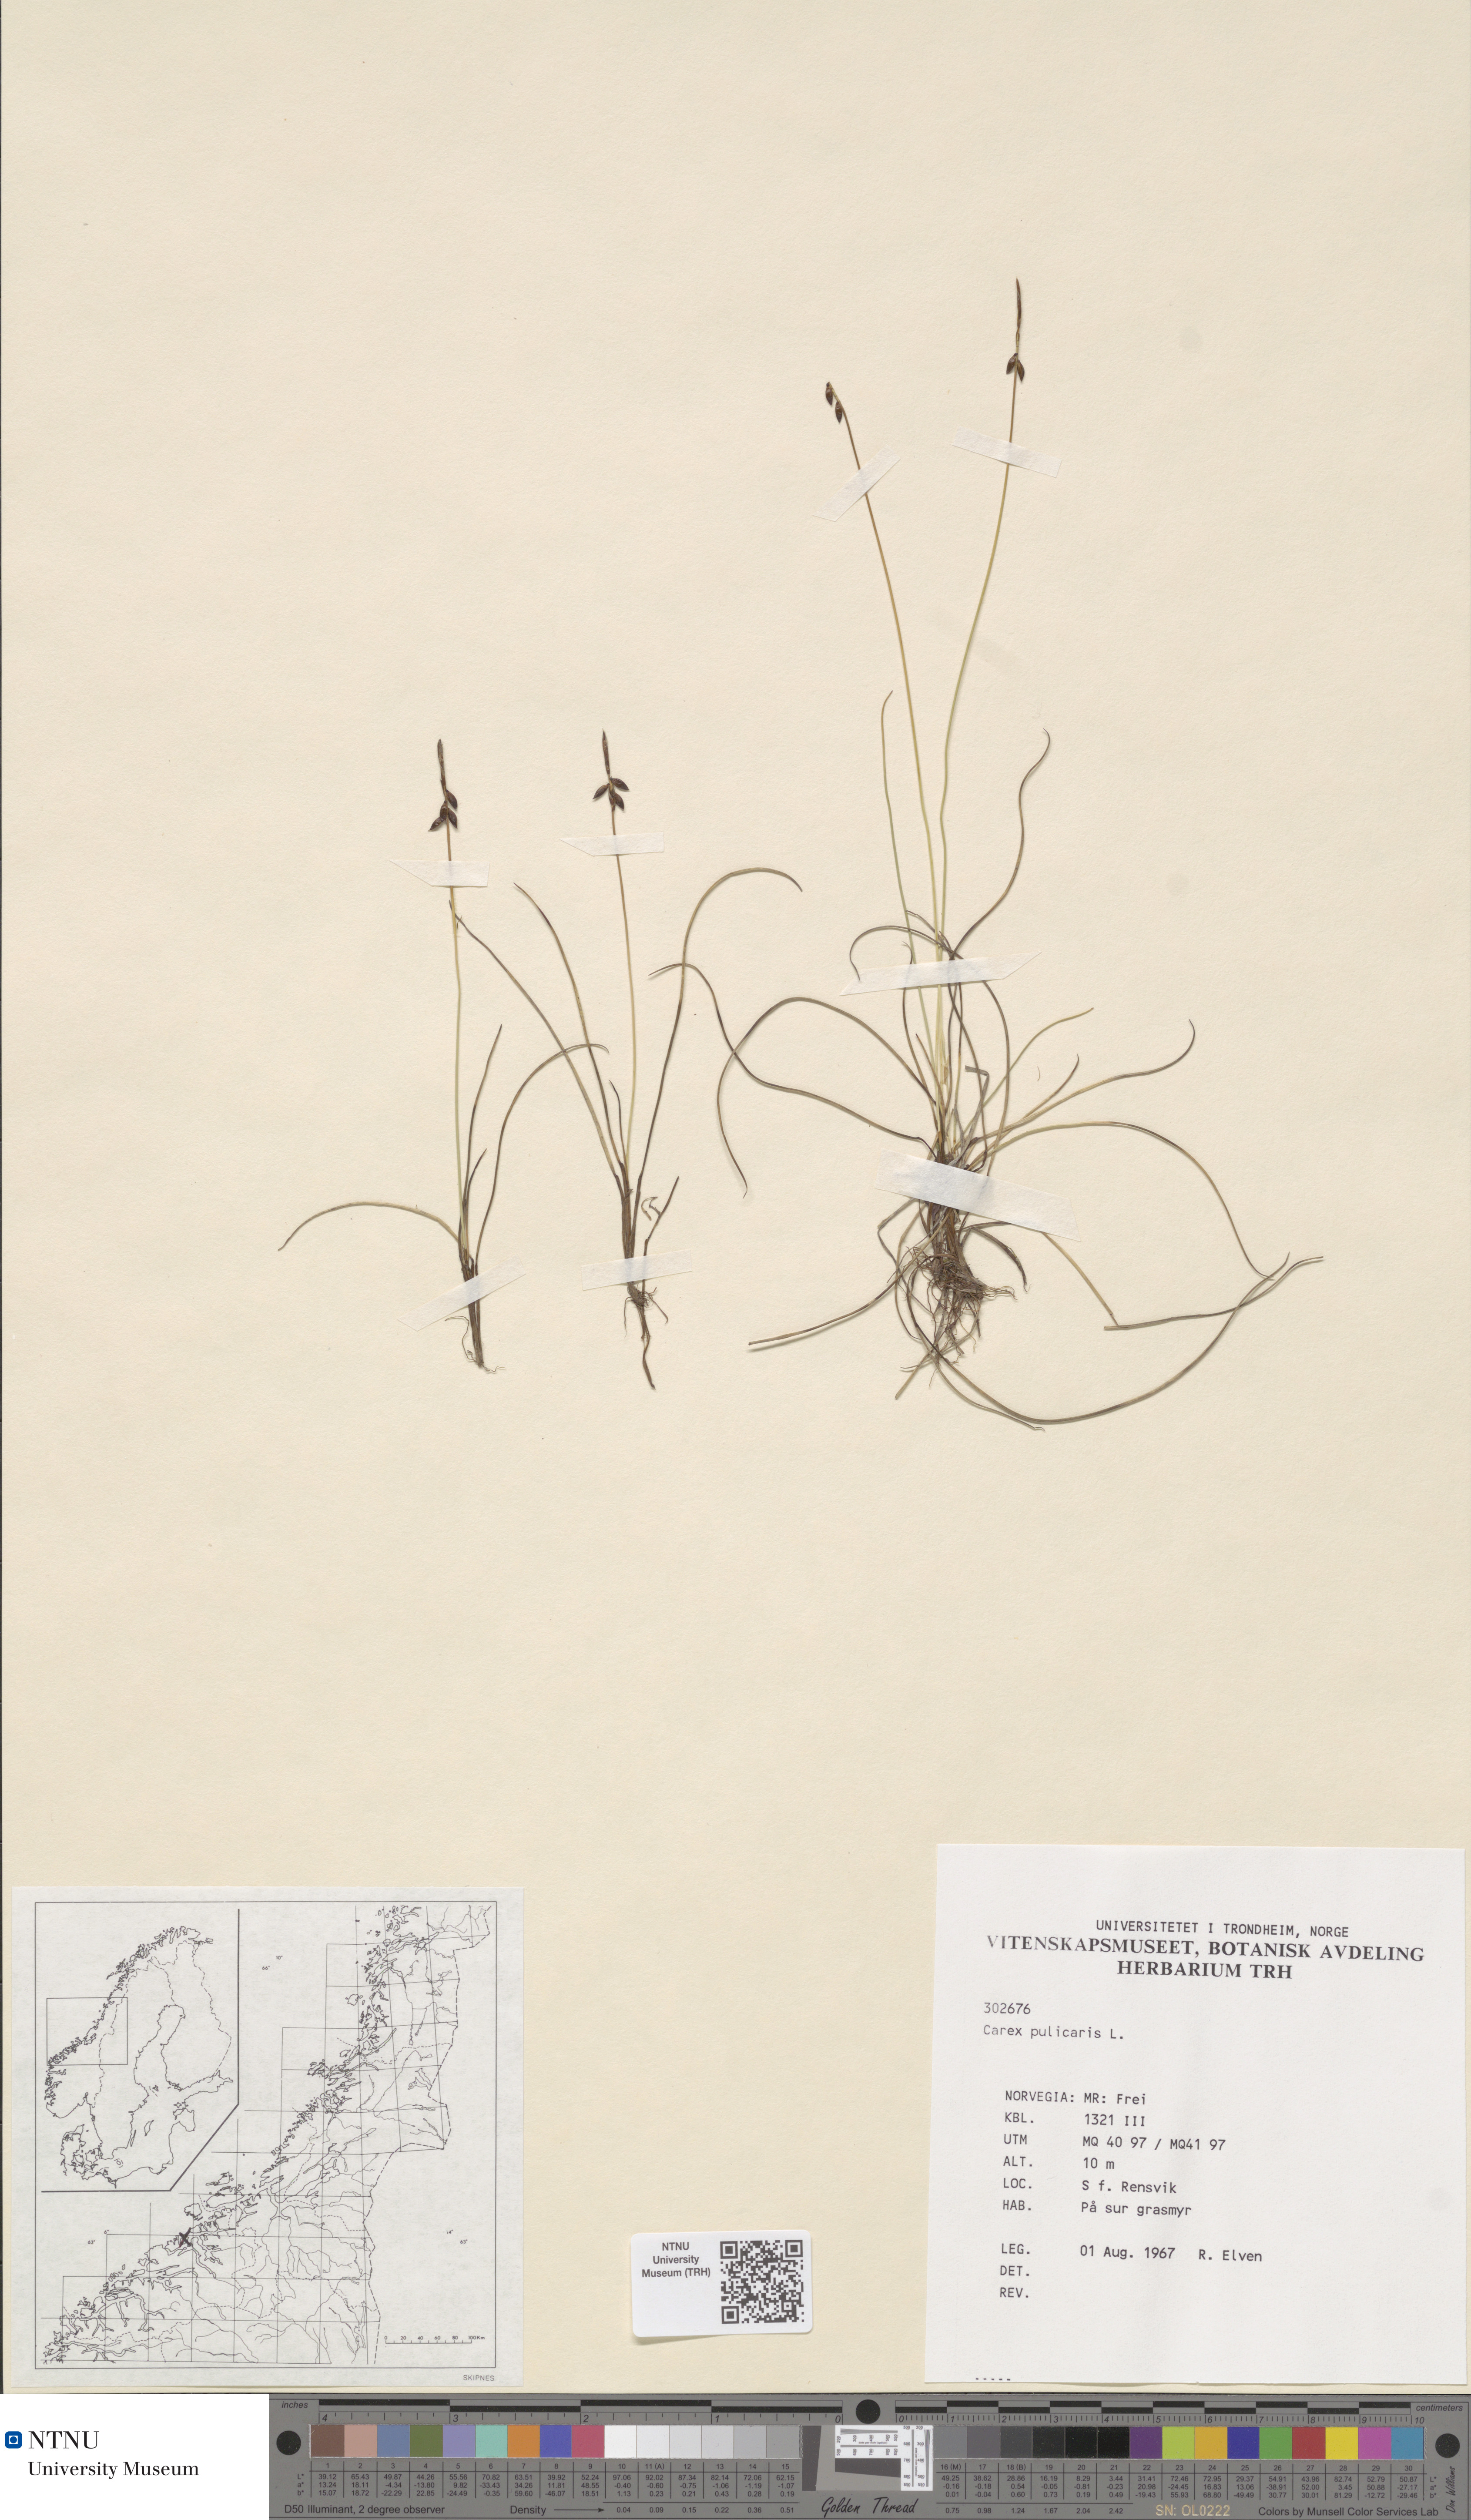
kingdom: Plantae
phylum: Tracheophyta
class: Liliopsida
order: Poales
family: Cyperaceae
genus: Carex
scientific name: Carex pulicaris
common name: Flea sedge
